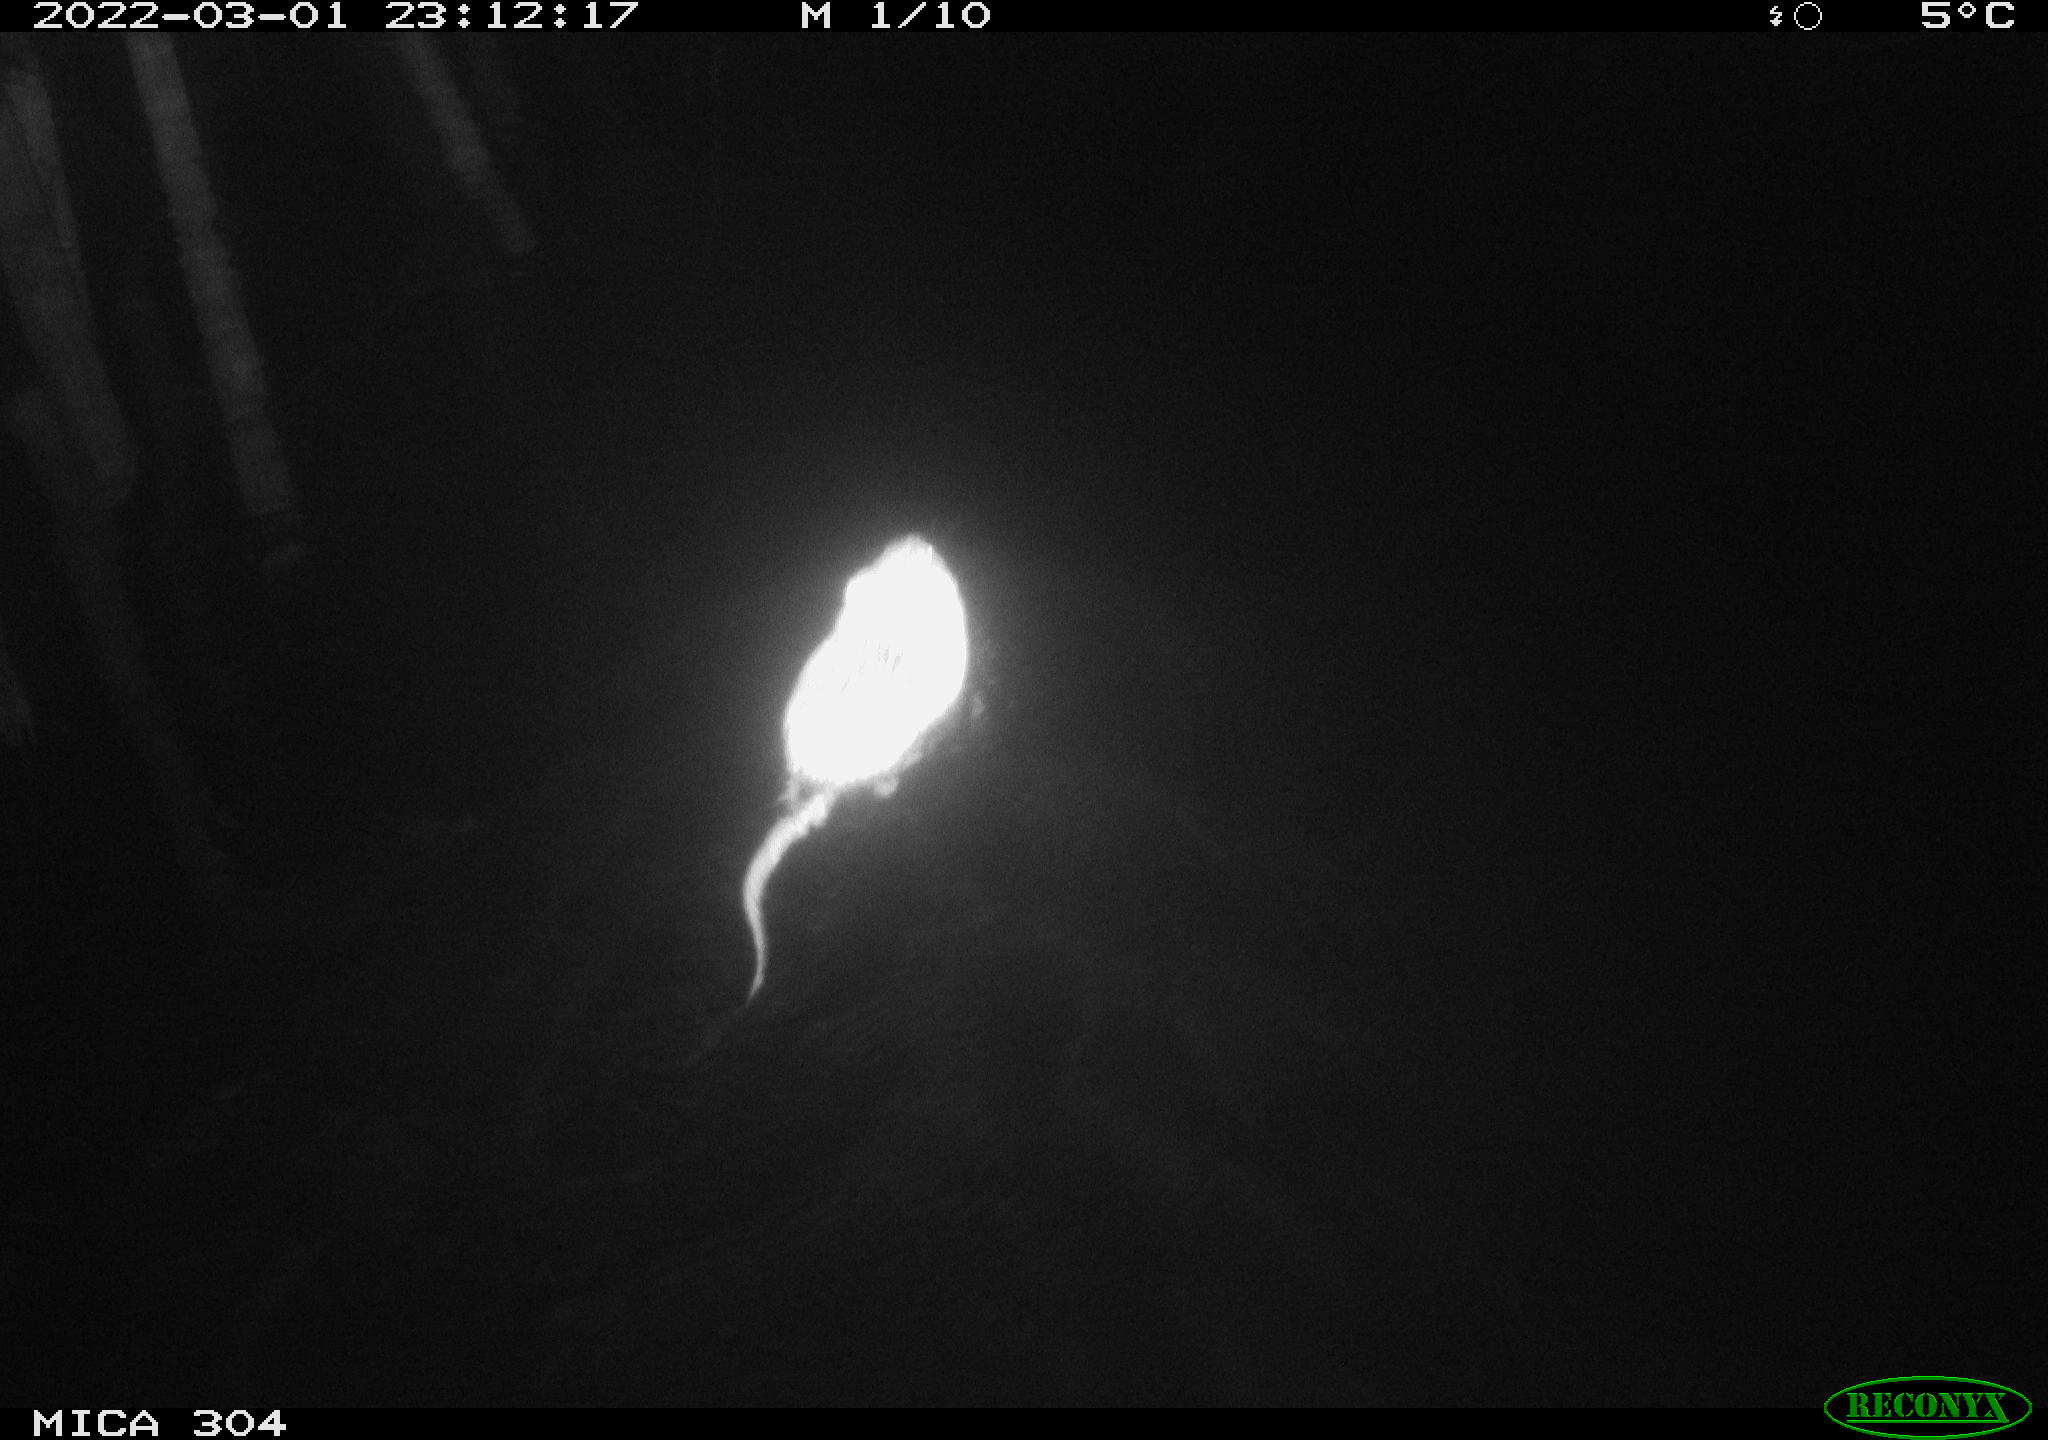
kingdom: Animalia
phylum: Chordata
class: Mammalia
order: Rodentia
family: Cricetidae
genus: Ondatra
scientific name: Ondatra zibethicus
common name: Muskrat
